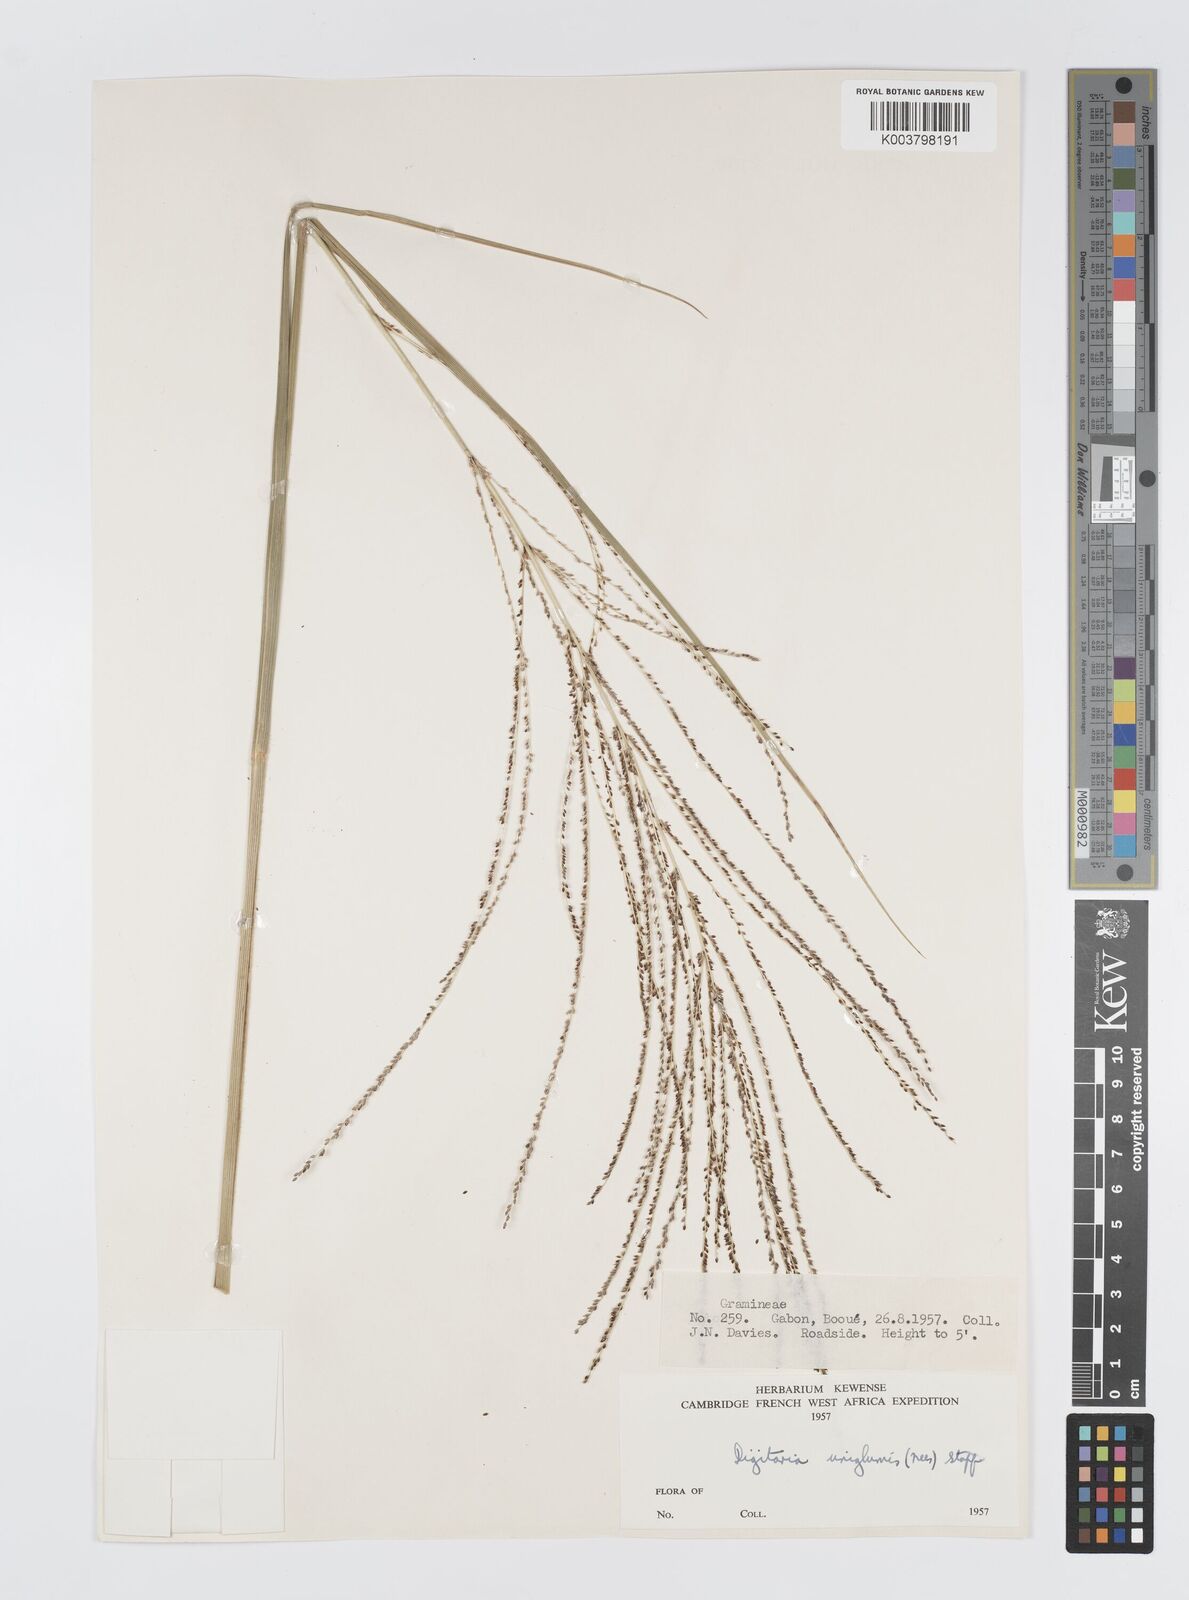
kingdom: Plantae
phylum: Tracheophyta
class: Liliopsida
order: Poales
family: Poaceae
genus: Digitaria
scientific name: Digitaria diagonalis
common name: Brown-seed finger grass
